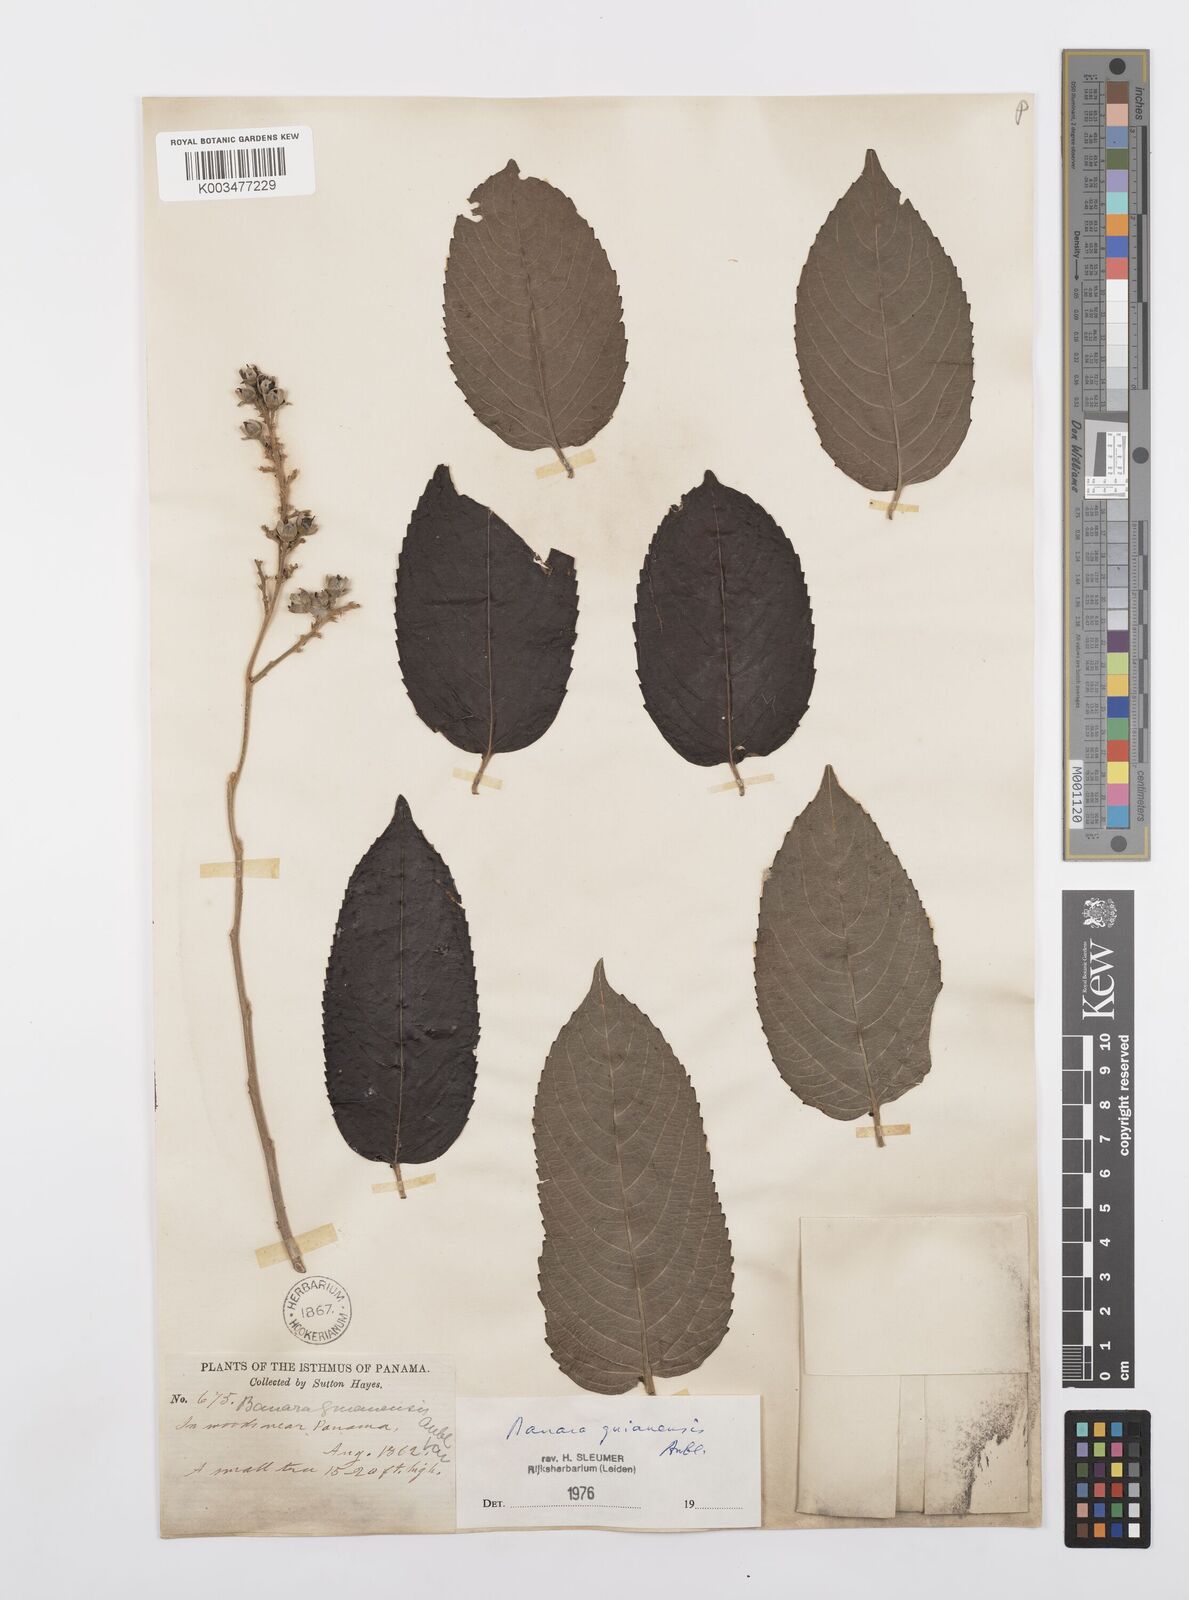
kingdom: Plantae
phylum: Tracheophyta
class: Magnoliopsida
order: Malpighiales
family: Salicaceae
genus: Banara
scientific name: Banara guianensis
